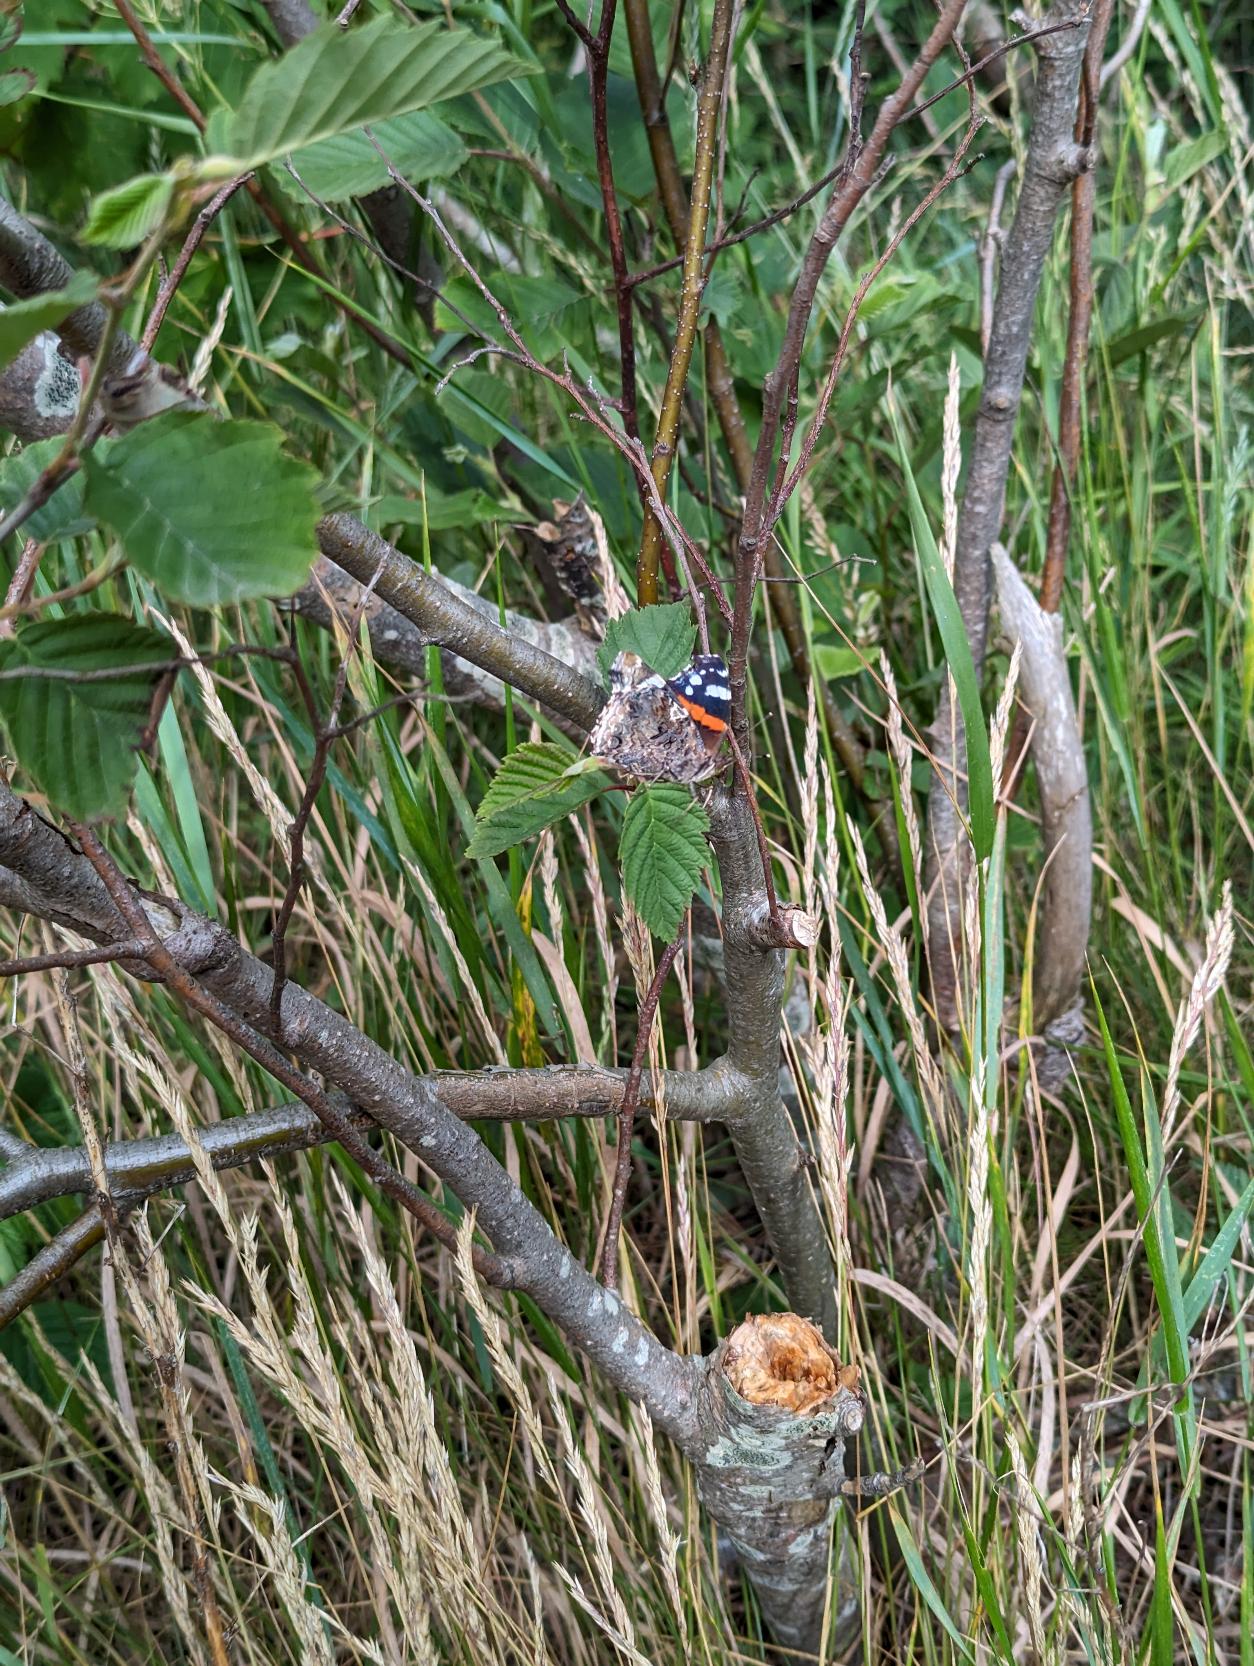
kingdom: Animalia
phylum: Arthropoda
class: Insecta
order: Lepidoptera
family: Nymphalidae
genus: Vanessa
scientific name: Vanessa atalanta
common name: Admiral
